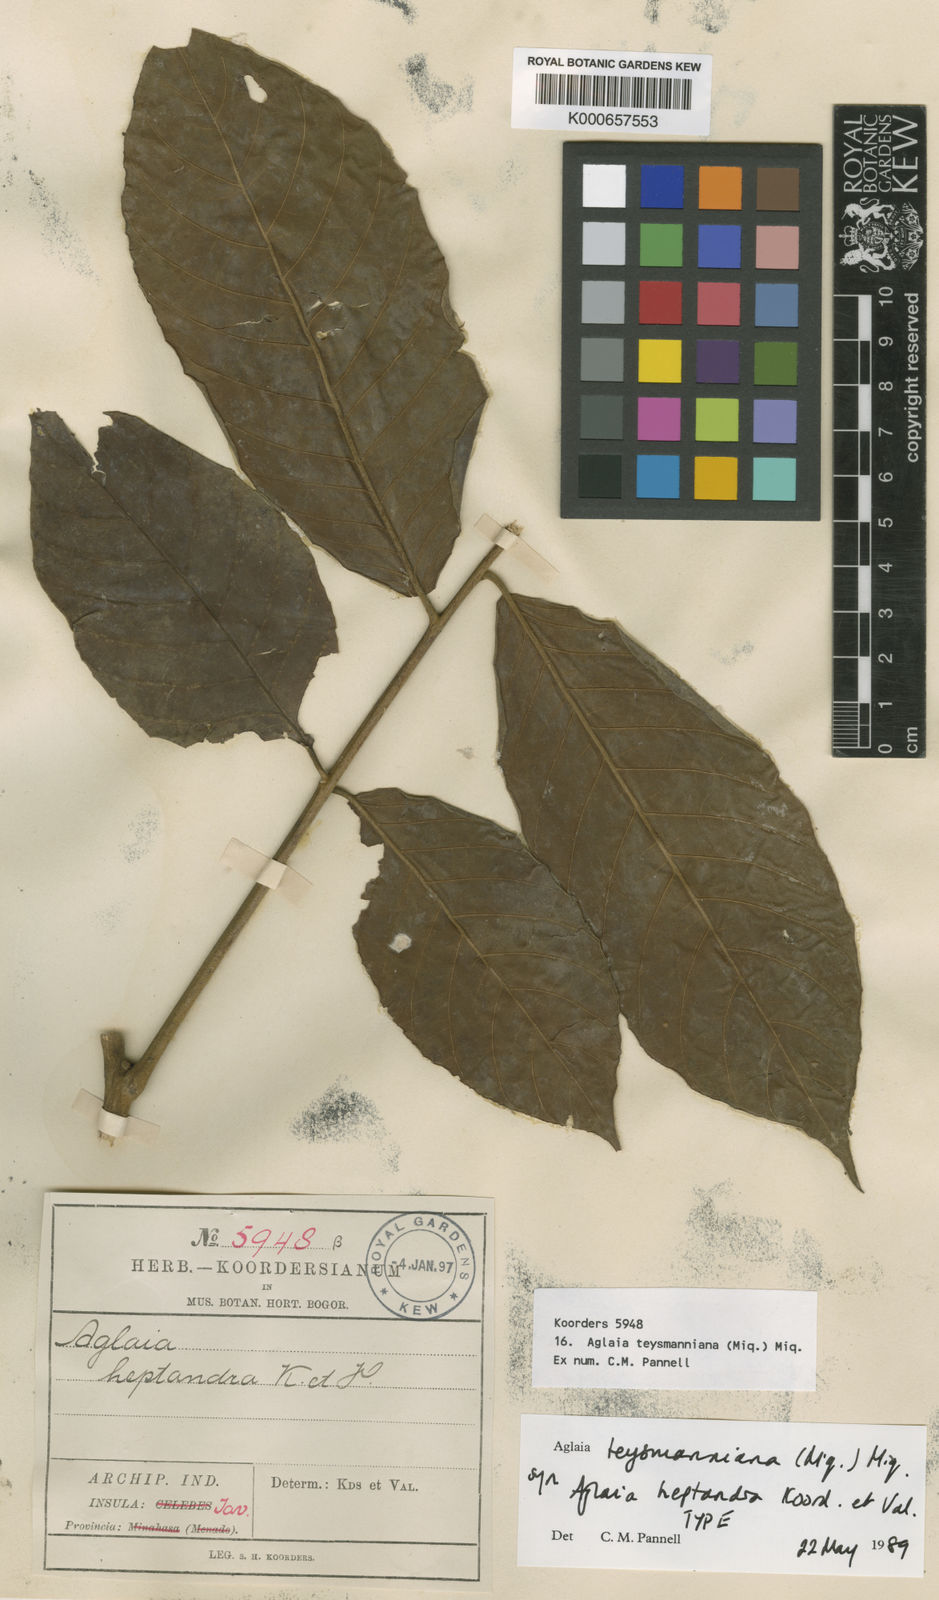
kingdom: Plantae
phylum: Tracheophyta
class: Magnoliopsida
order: Sapindales
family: Meliaceae
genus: Aglaia
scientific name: Aglaia teysmanniana
